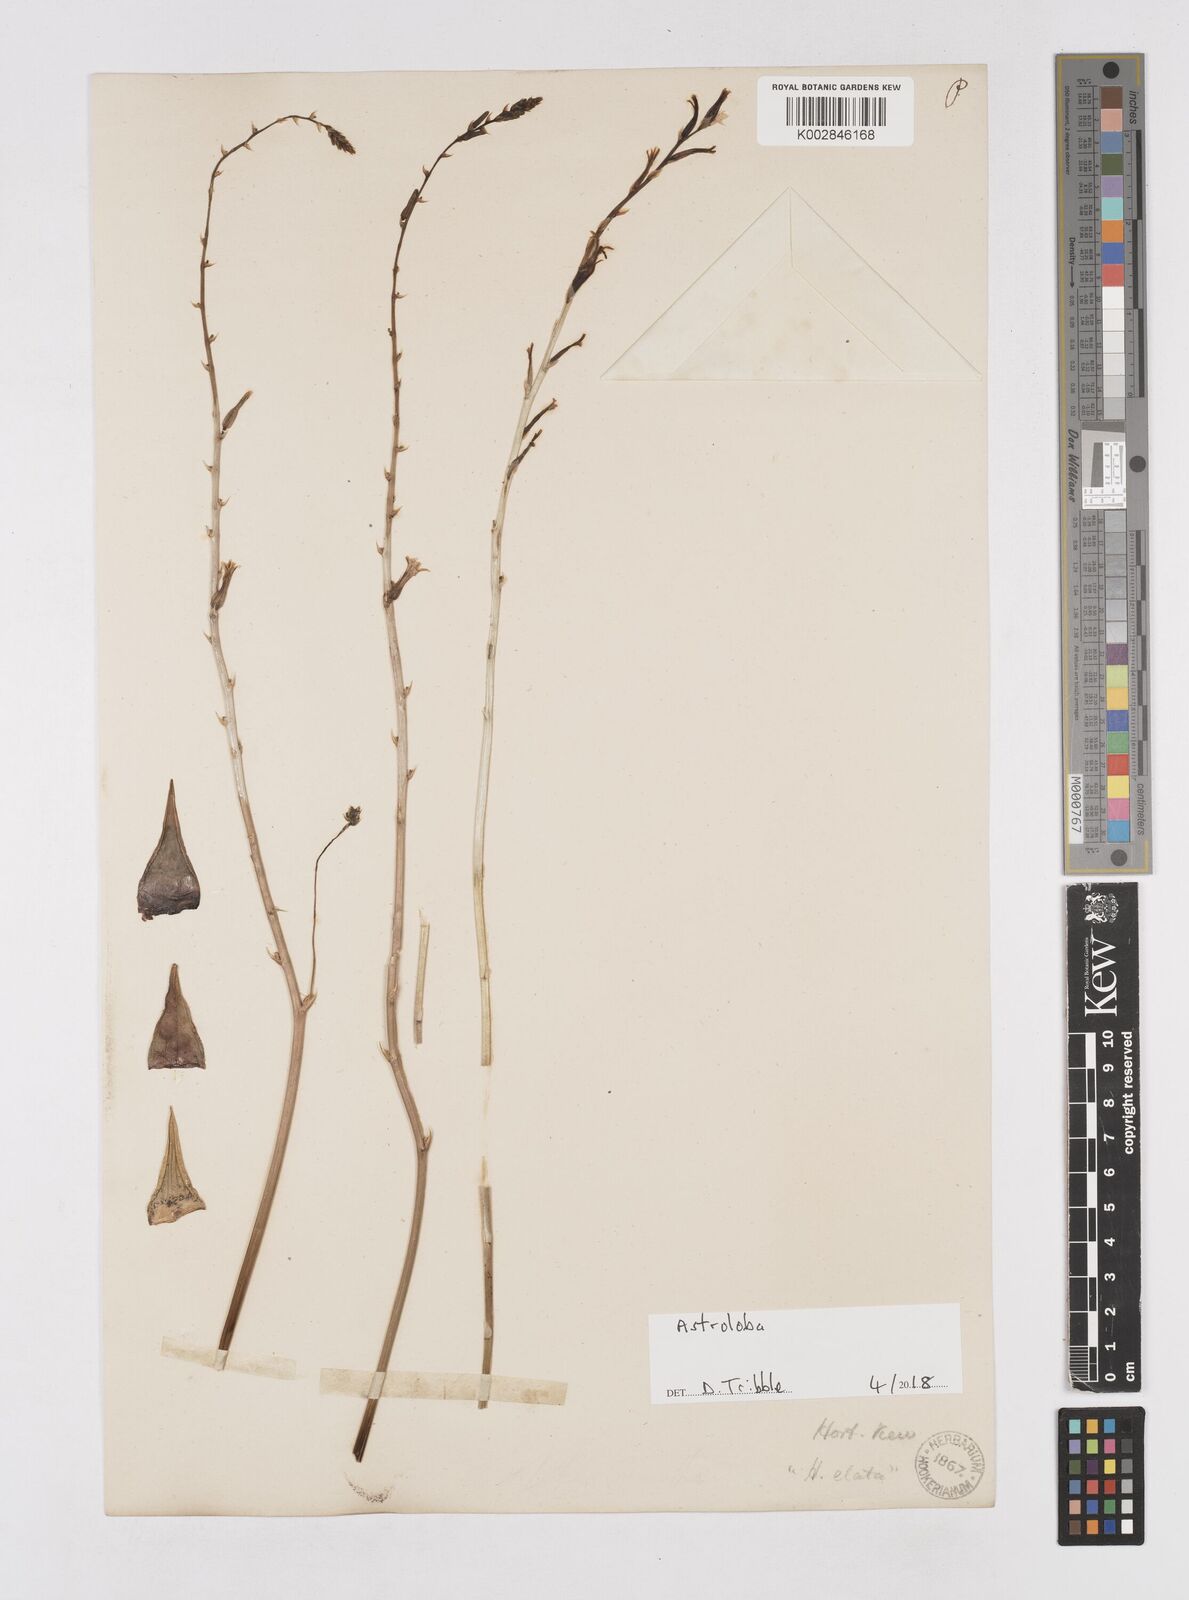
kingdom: Plantae
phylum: Tracheophyta
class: Liliopsida
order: Asparagales
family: Asphodelaceae
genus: Astroloba
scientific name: Astroloba
